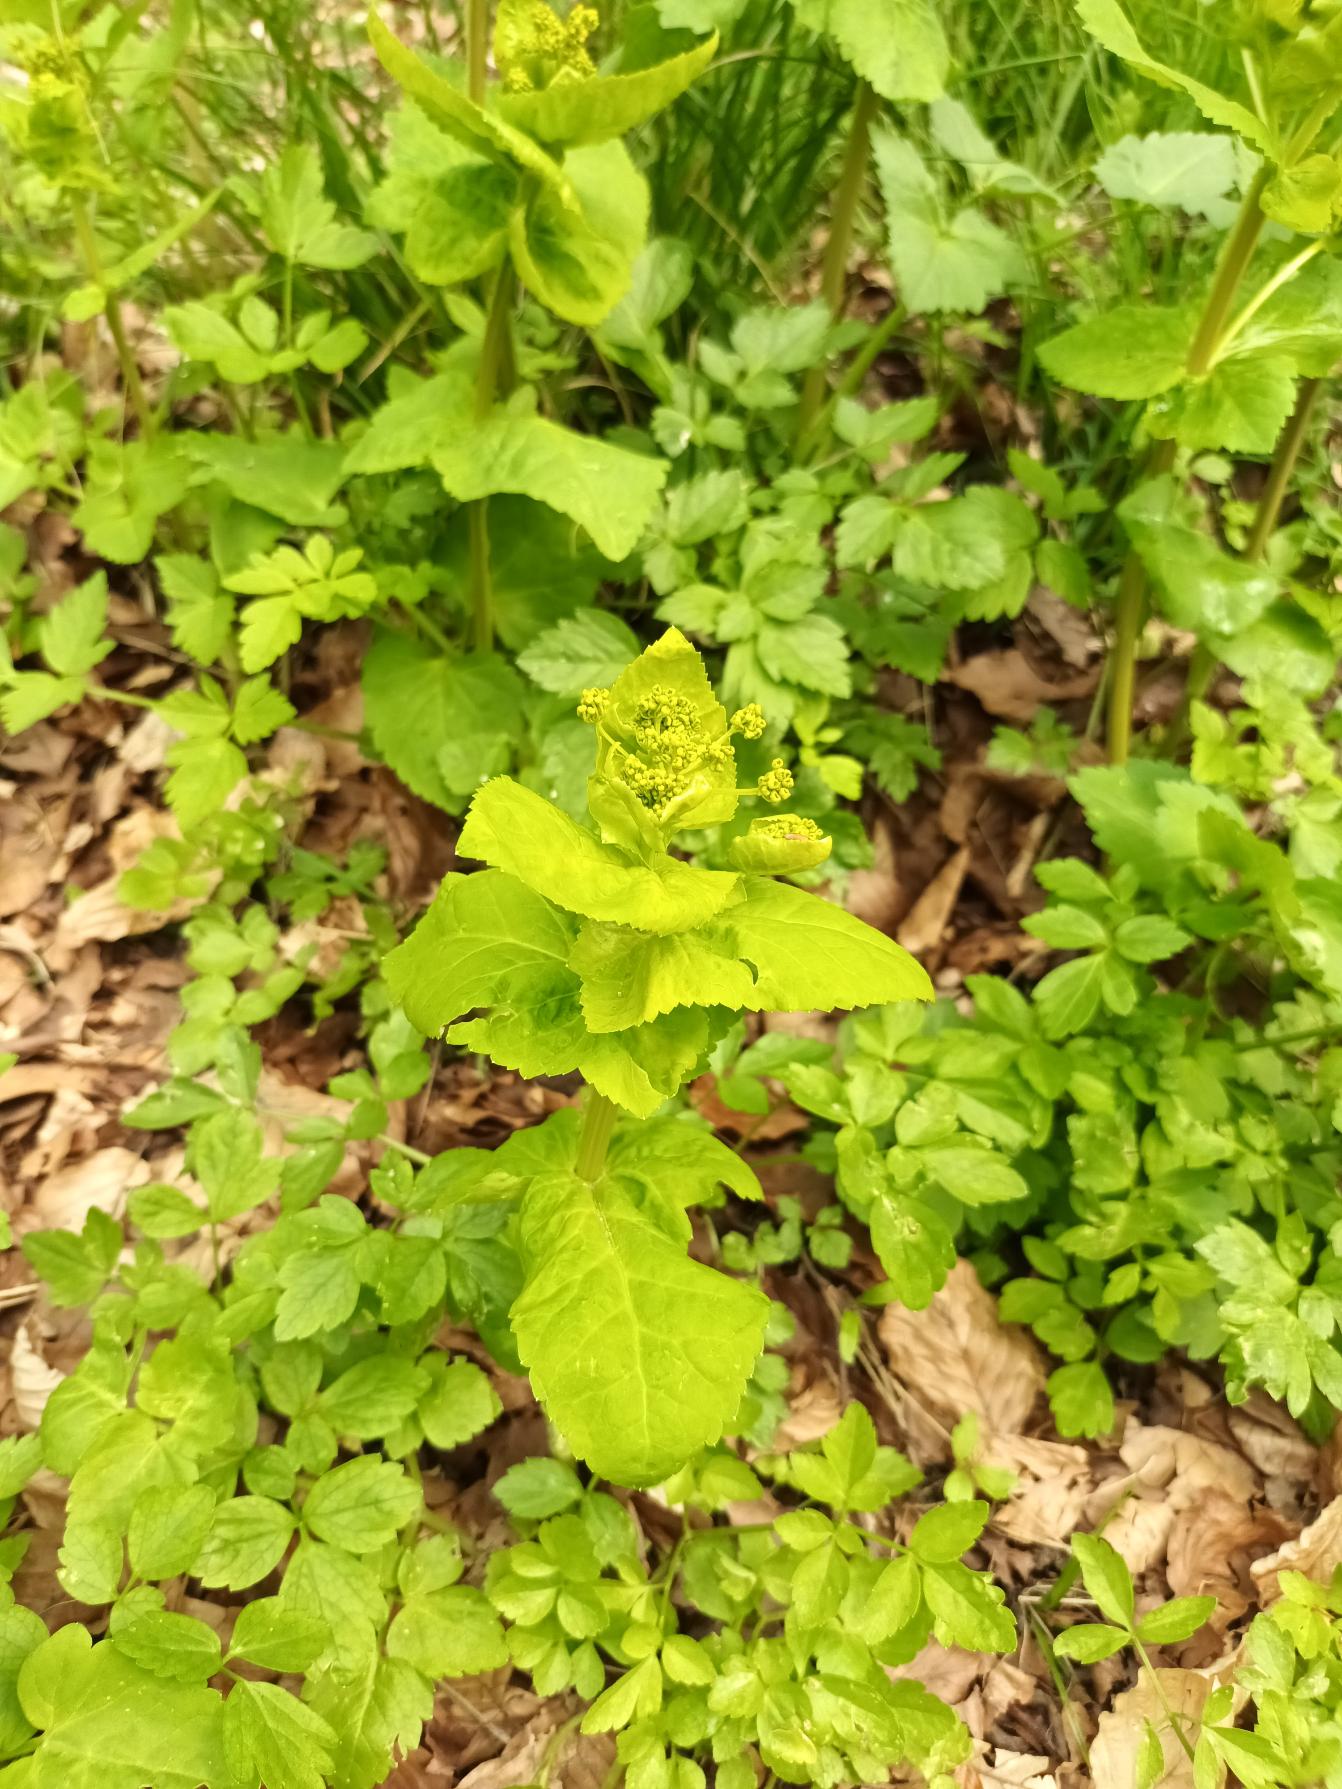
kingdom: Plantae
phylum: Tracheophyta
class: Magnoliopsida
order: Apiales
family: Apiaceae
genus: Smyrnium
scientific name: Smyrnium perfoliatum
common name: Lundgylden
